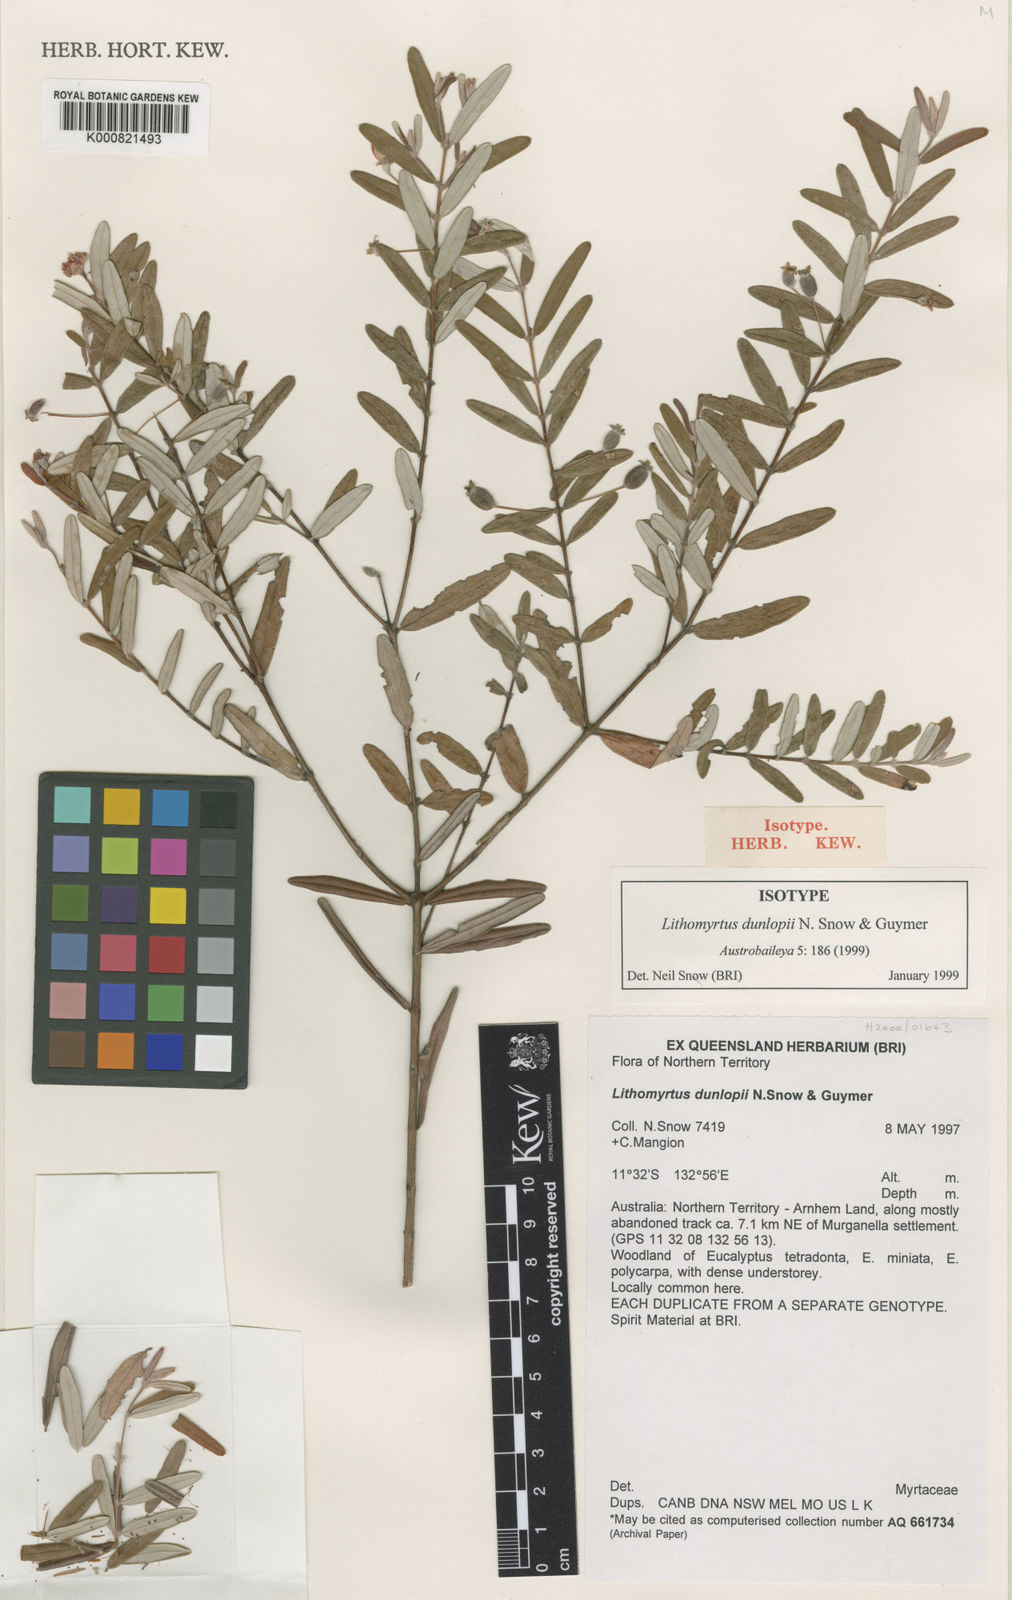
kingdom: Plantae
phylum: Tracheophyta
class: Magnoliopsida
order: Myrtales
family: Myrtaceae
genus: Lithomyrtus
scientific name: Lithomyrtus dunlopii
